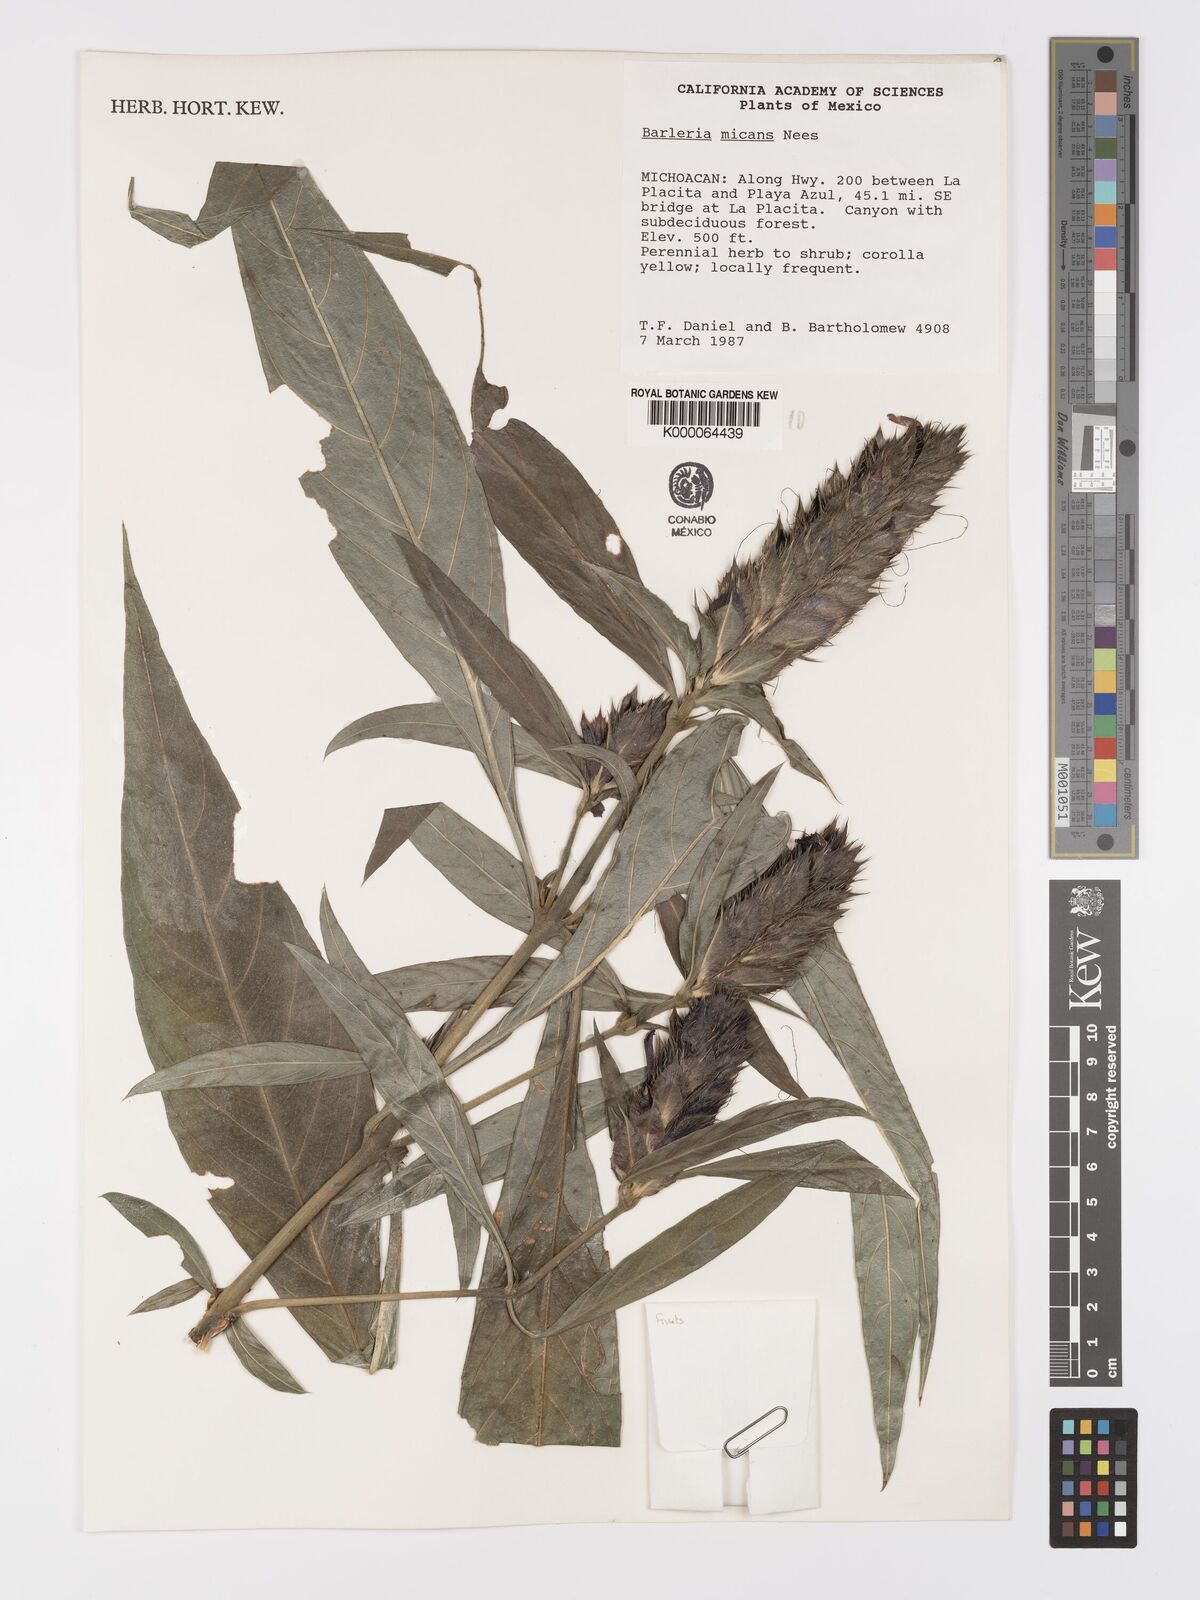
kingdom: Plantae
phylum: Tracheophyta
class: Magnoliopsida
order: Lamiales
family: Acanthaceae
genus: Barleria
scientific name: Barleria oenotheroides
